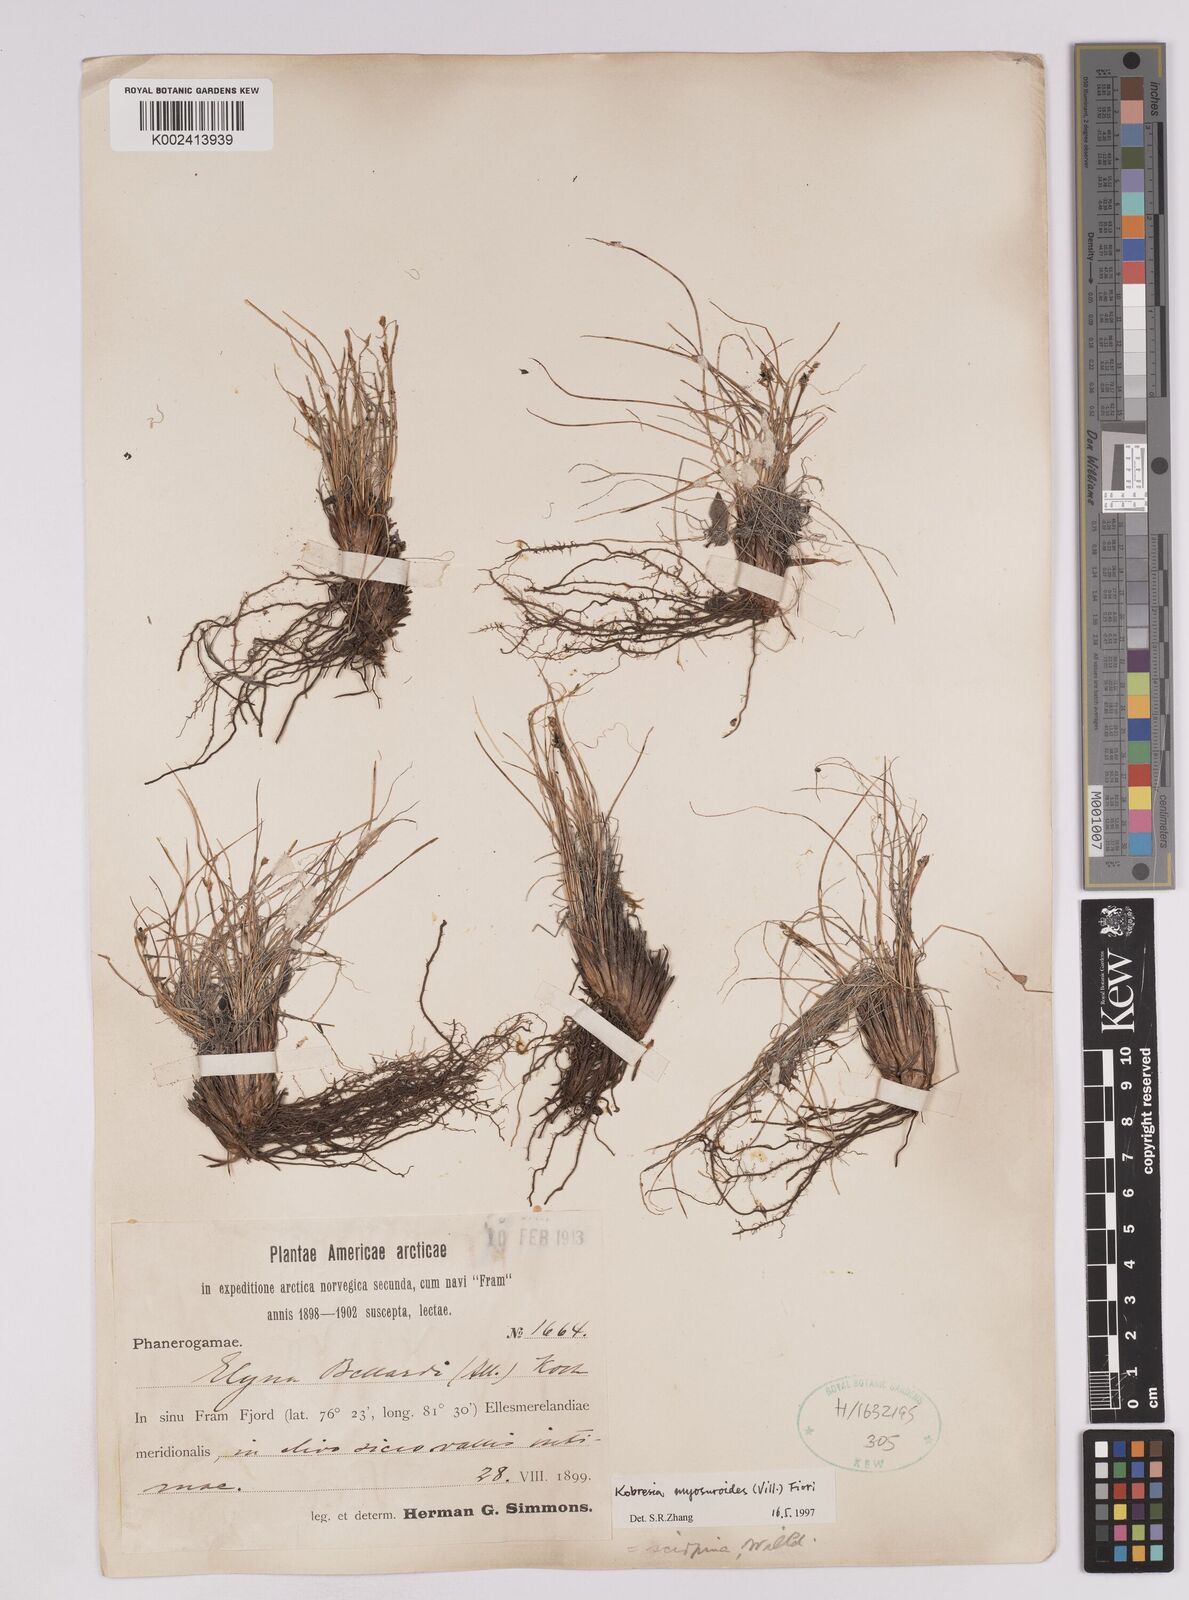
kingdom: Plantae
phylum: Tracheophyta
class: Liliopsida
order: Poales
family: Cyperaceae
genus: Carex
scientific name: Carex myosuroides
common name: Bellard's bog sedge
